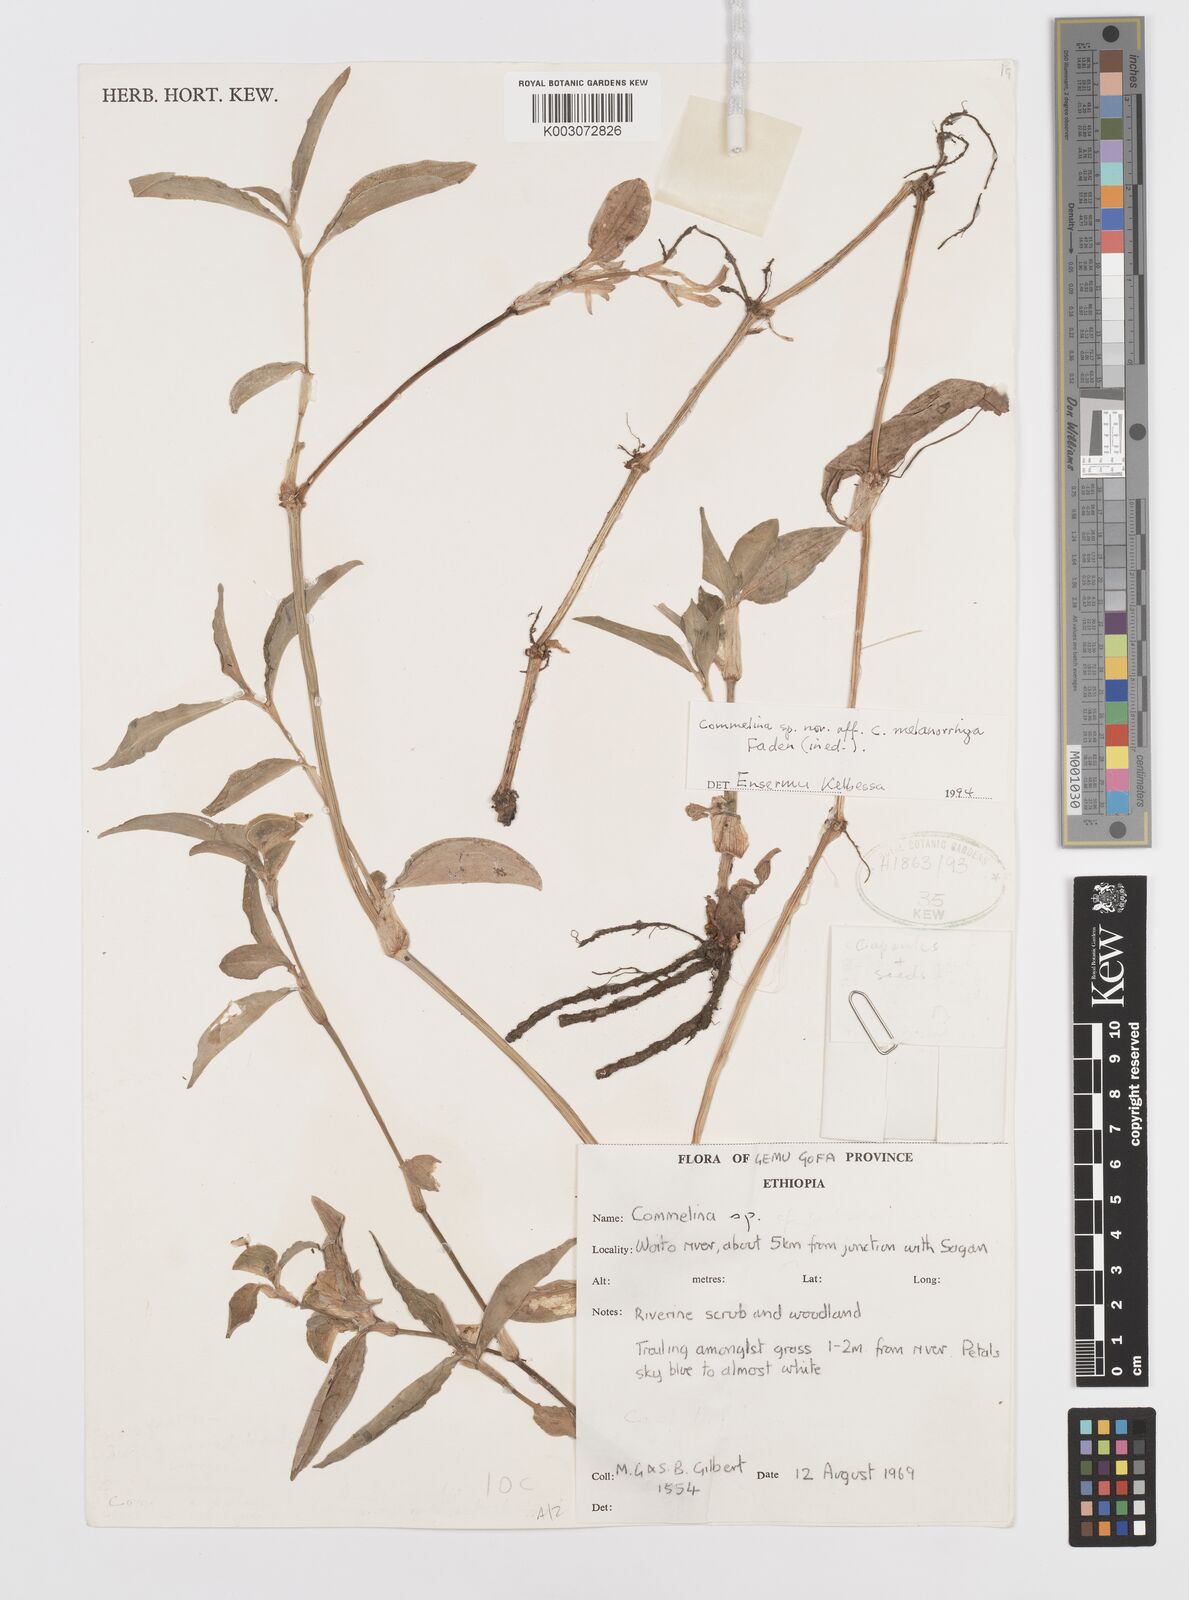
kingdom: Plantae
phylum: Tracheophyta
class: Liliopsida
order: Commelinales
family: Commelinaceae
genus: Commelina
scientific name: Commelina melanorrhiza
